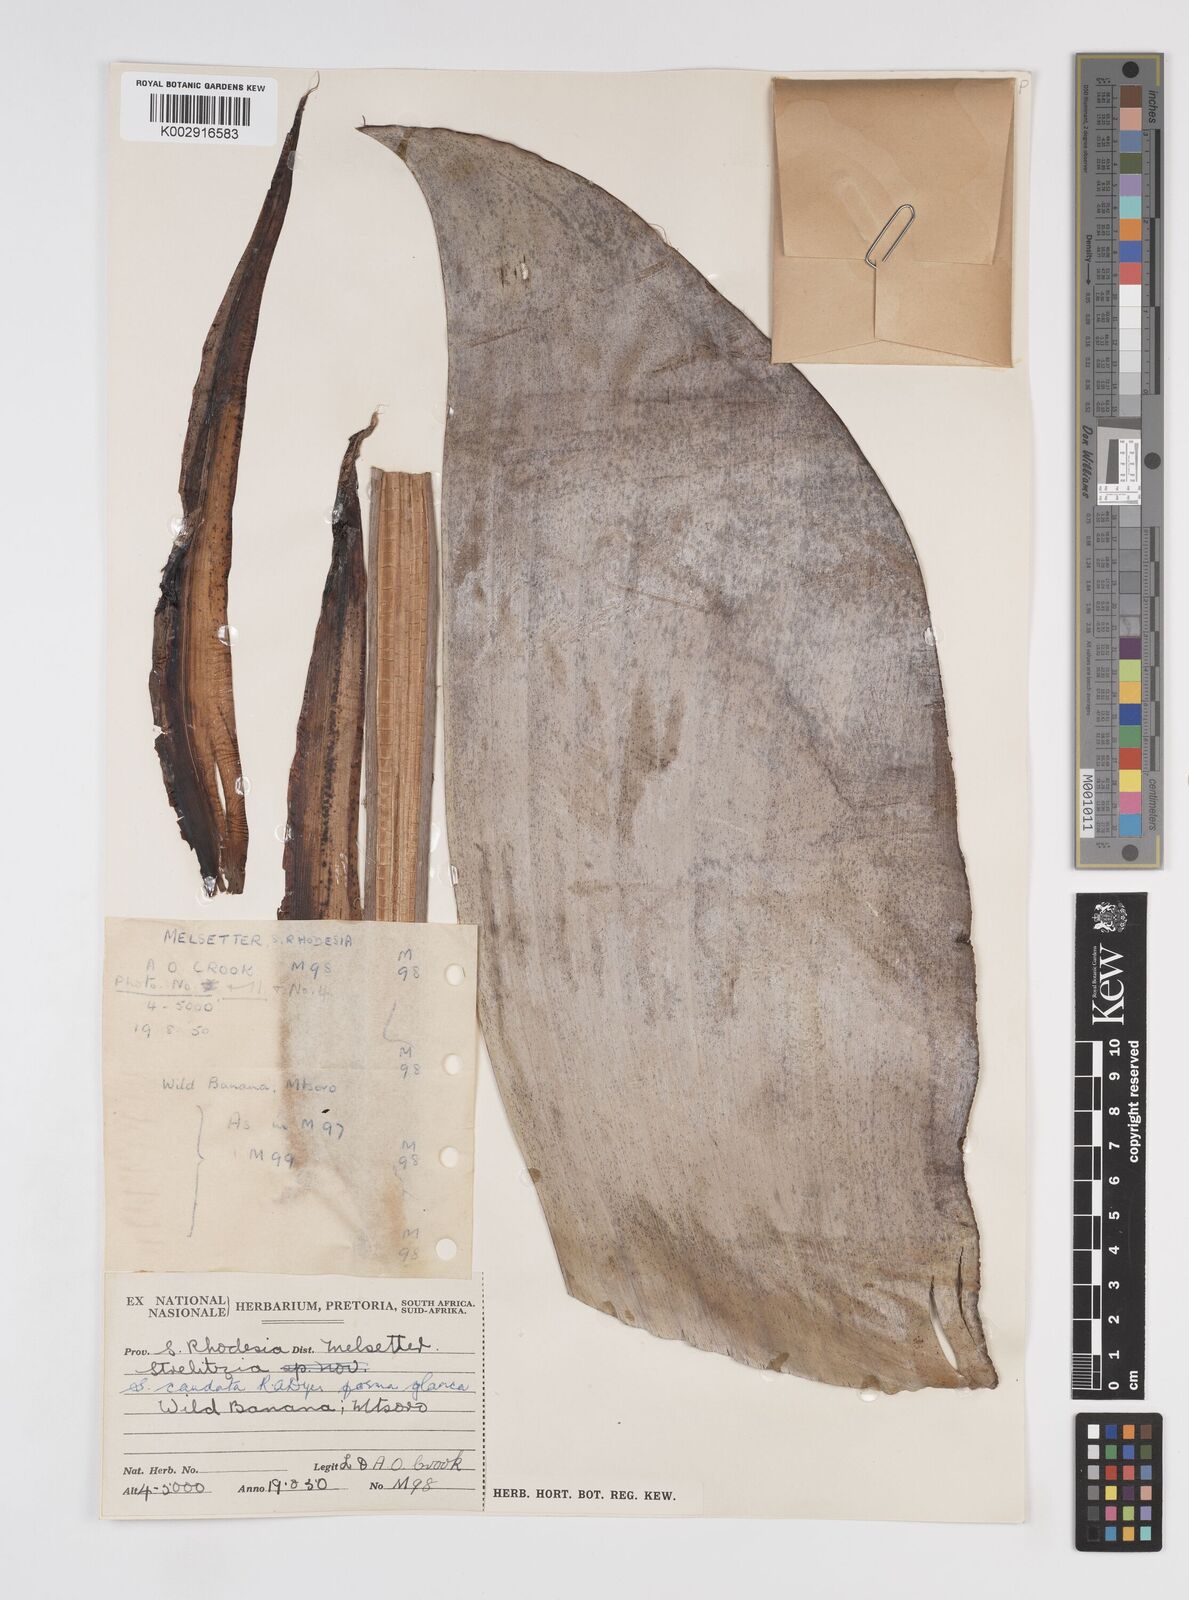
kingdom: Plantae
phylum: Tracheophyta
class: Liliopsida
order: Zingiberales
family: Strelitziaceae
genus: Strelitzia
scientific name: Strelitzia caudata
